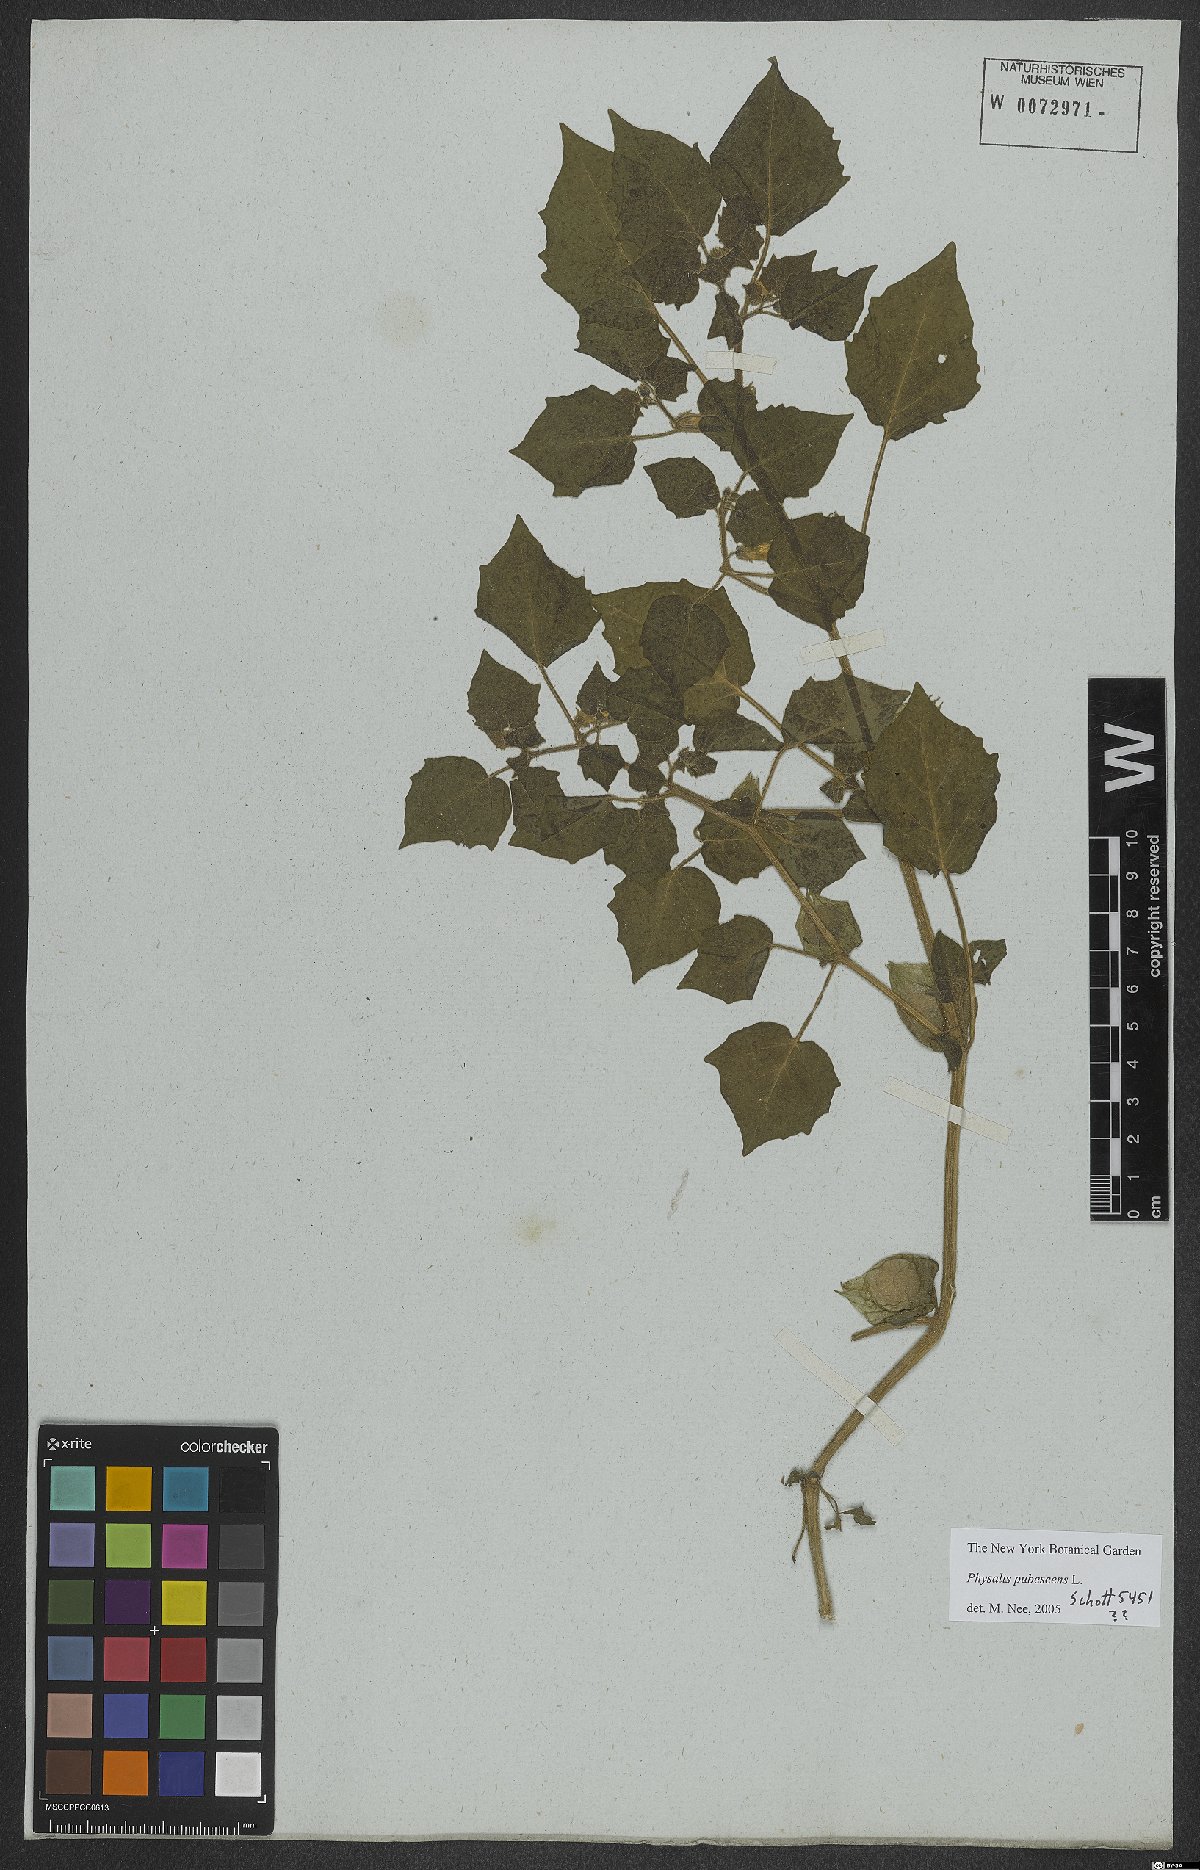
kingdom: Plantae
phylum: Tracheophyta
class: Magnoliopsida
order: Solanales
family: Solanaceae
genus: Physalis
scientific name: Physalis pubescens
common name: Downy ground-cherry
